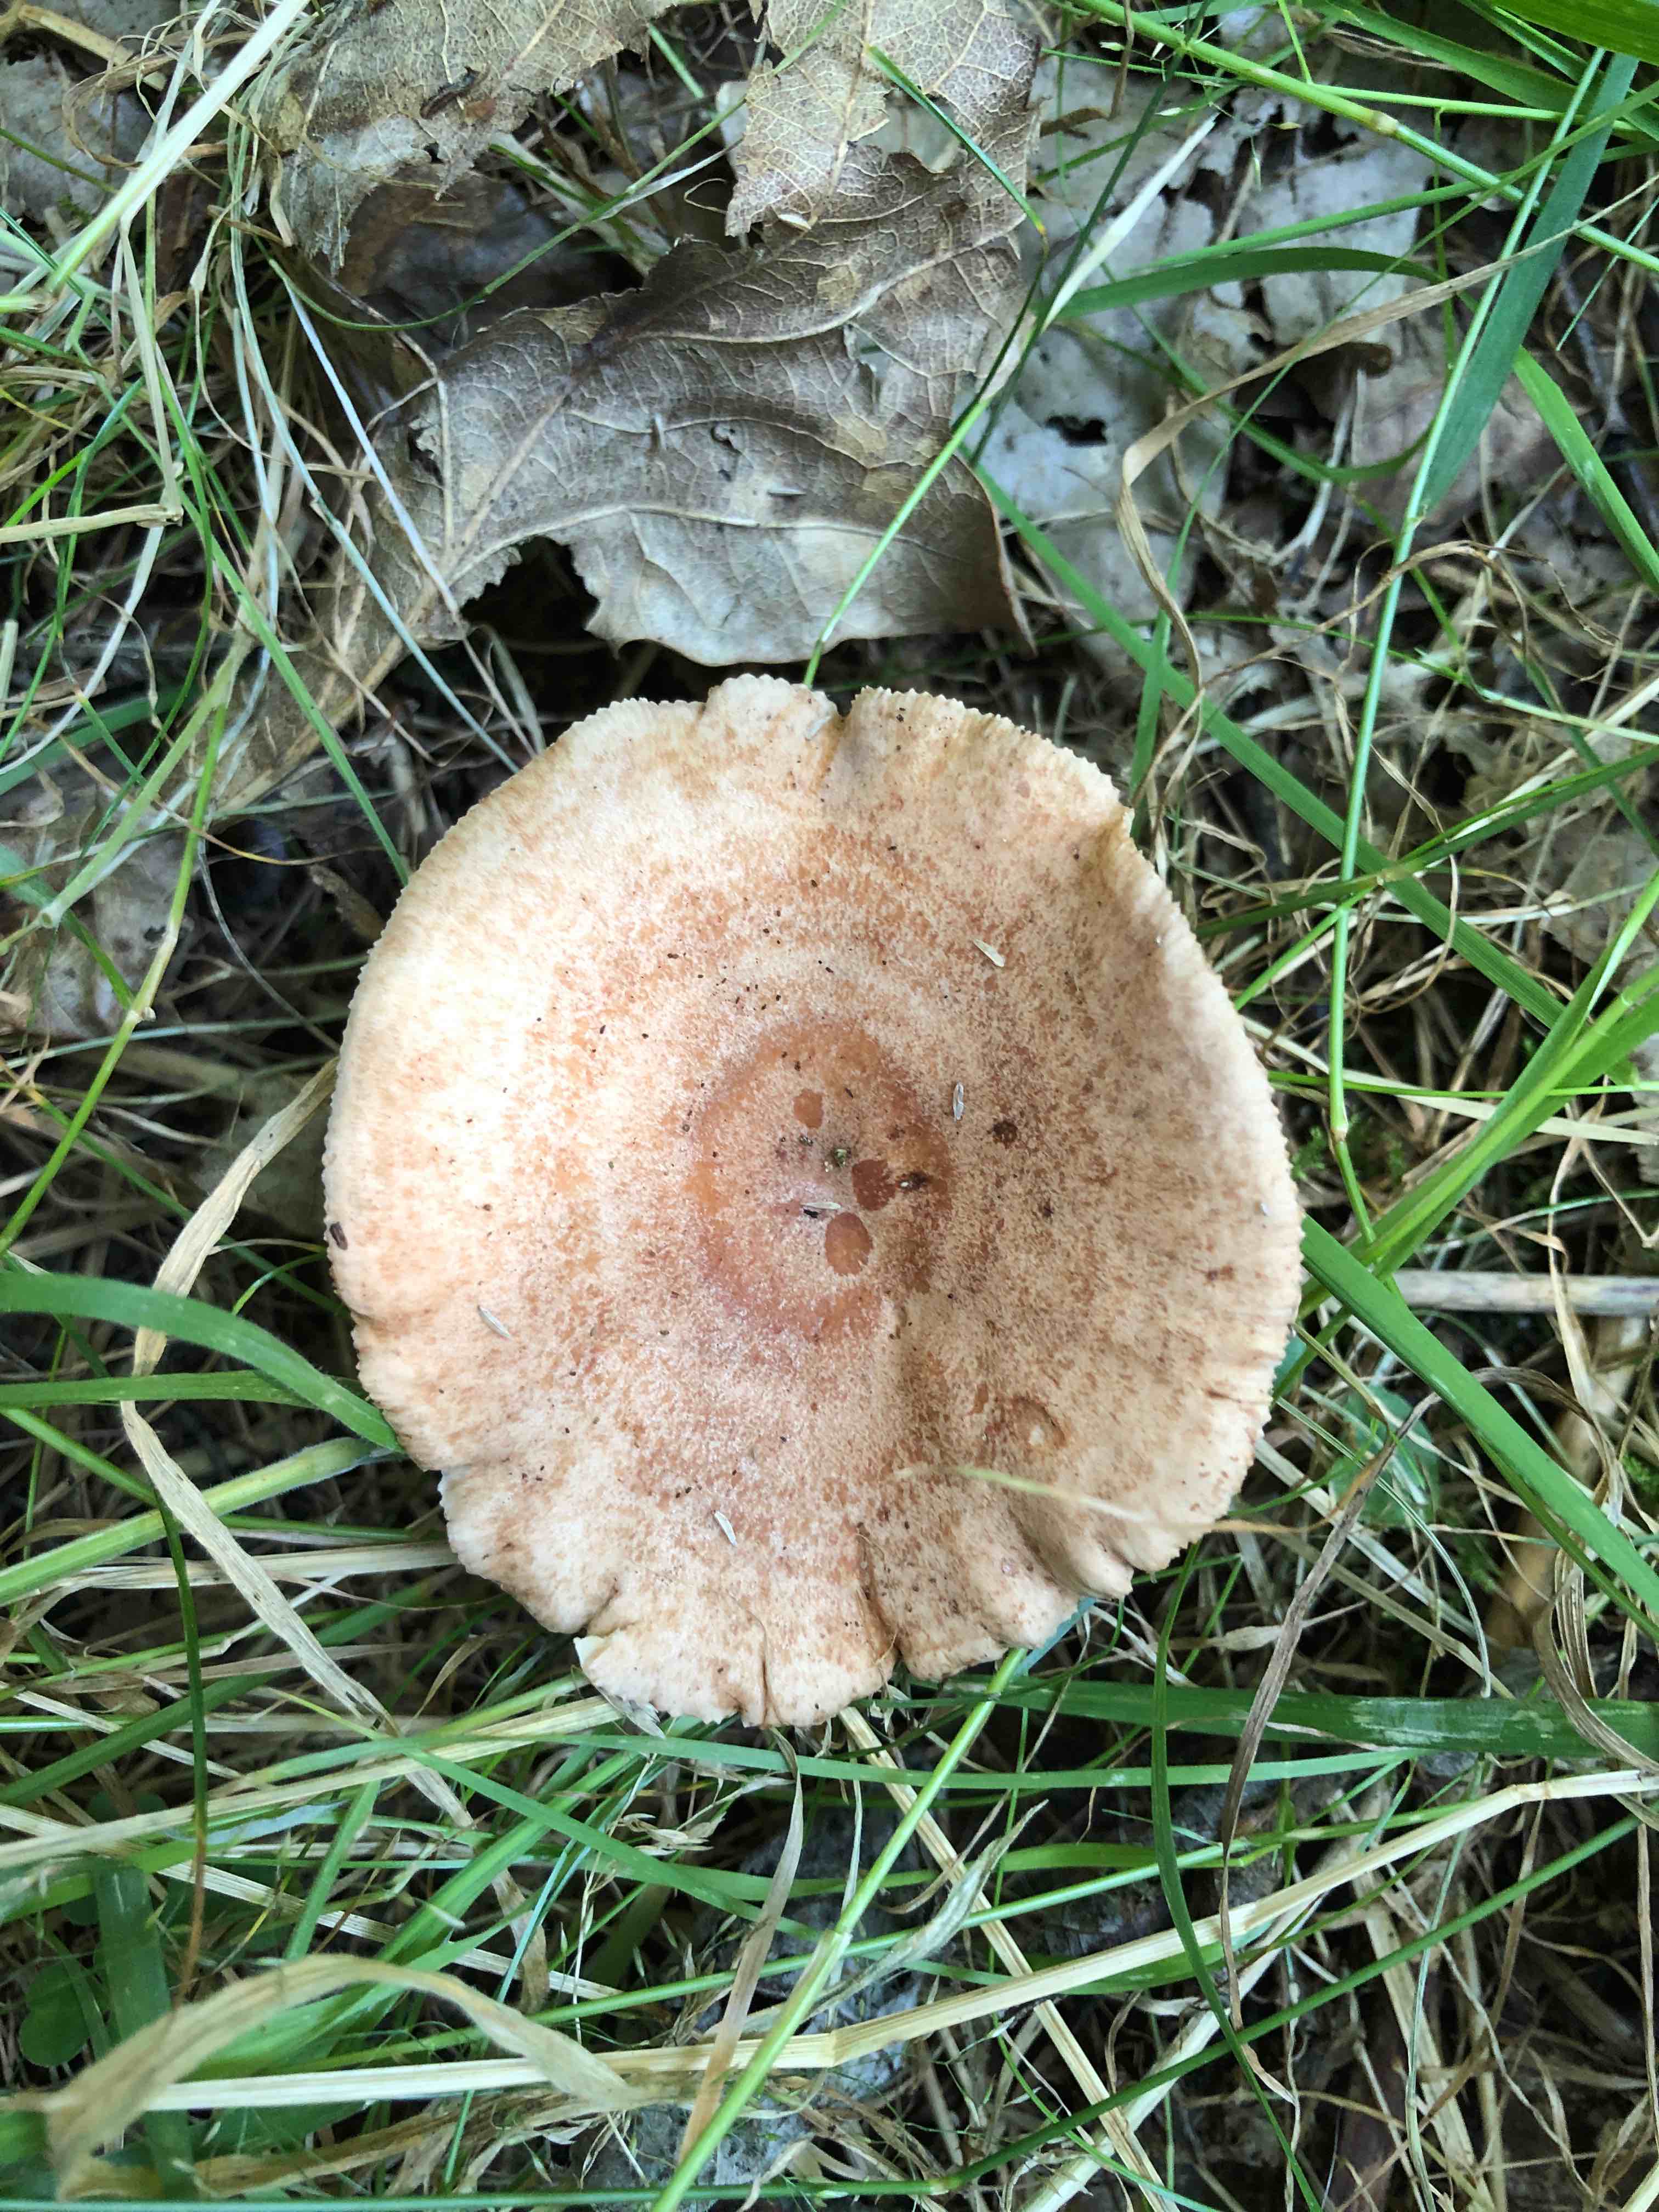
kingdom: Fungi
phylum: Basidiomycota
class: Agaricomycetes
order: Russulales
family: Russulaceae
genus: Lactarius
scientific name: Lactarius quietus
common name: ege-mælkehat
